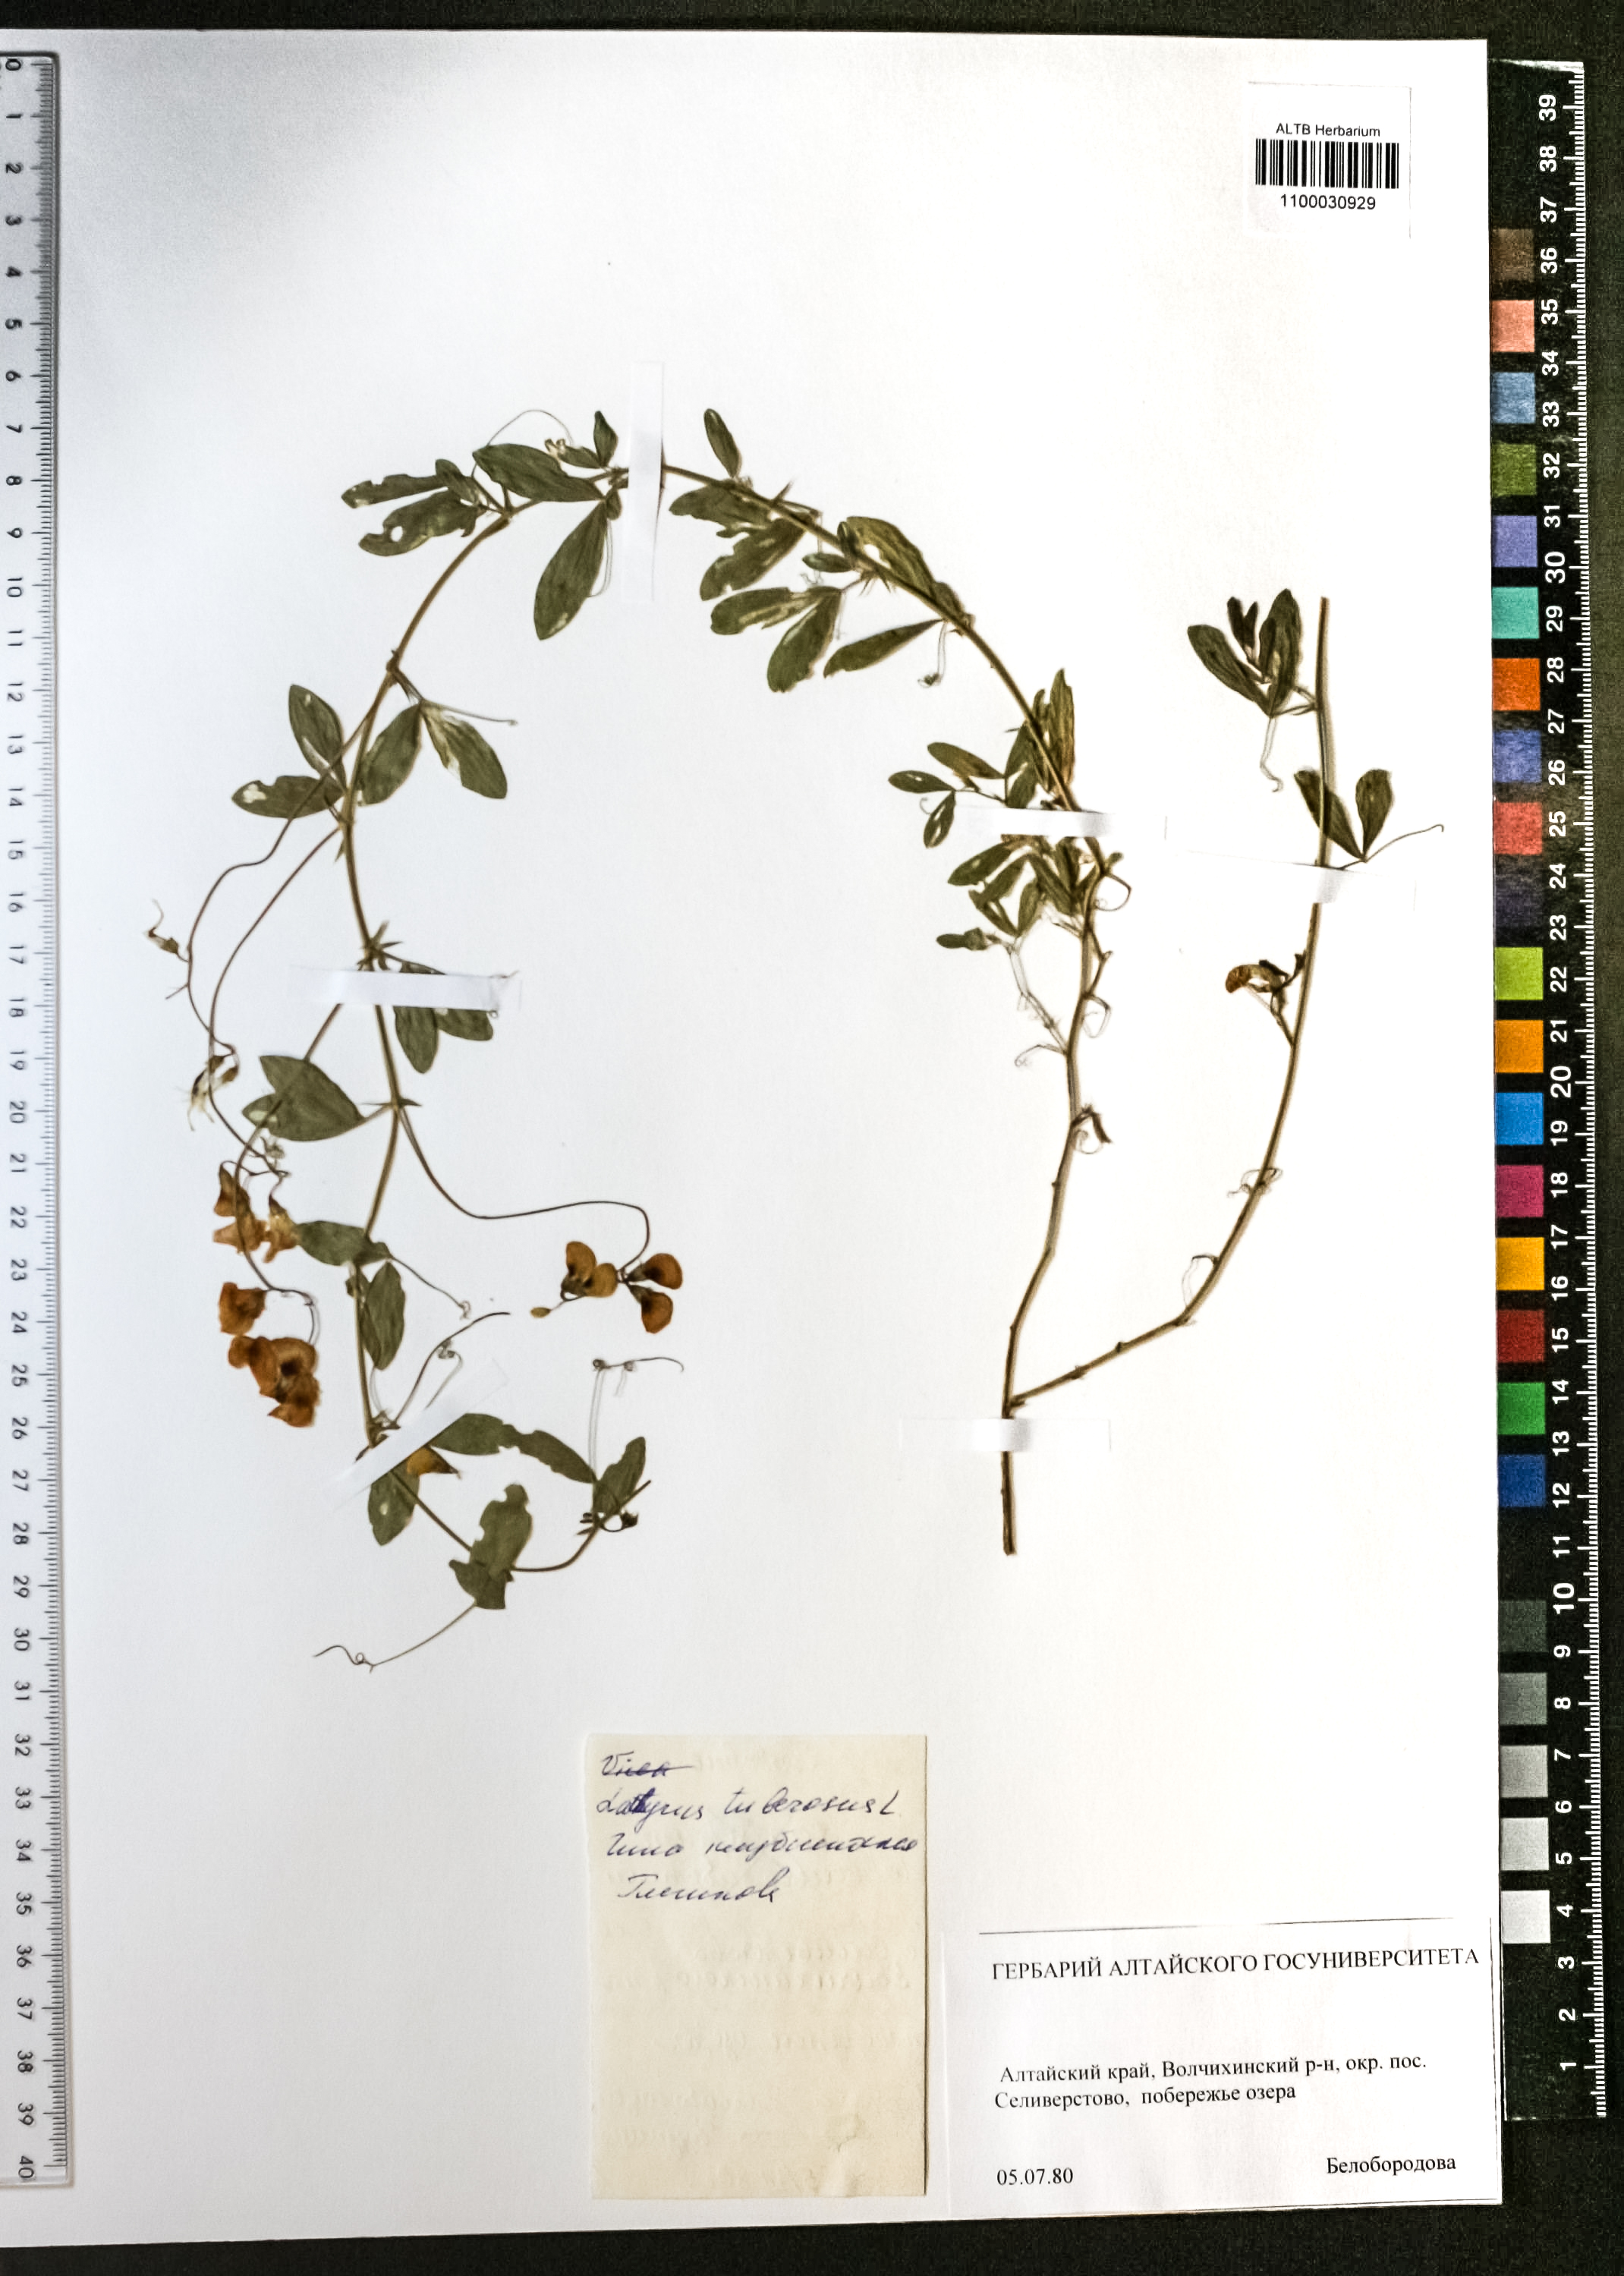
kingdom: Plantae
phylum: Tracheophyta
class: Magnoliopsida
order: Fabales
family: Fabaceae
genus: Lathyrus
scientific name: Lathyrus tuberosus
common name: Tuberous pea
